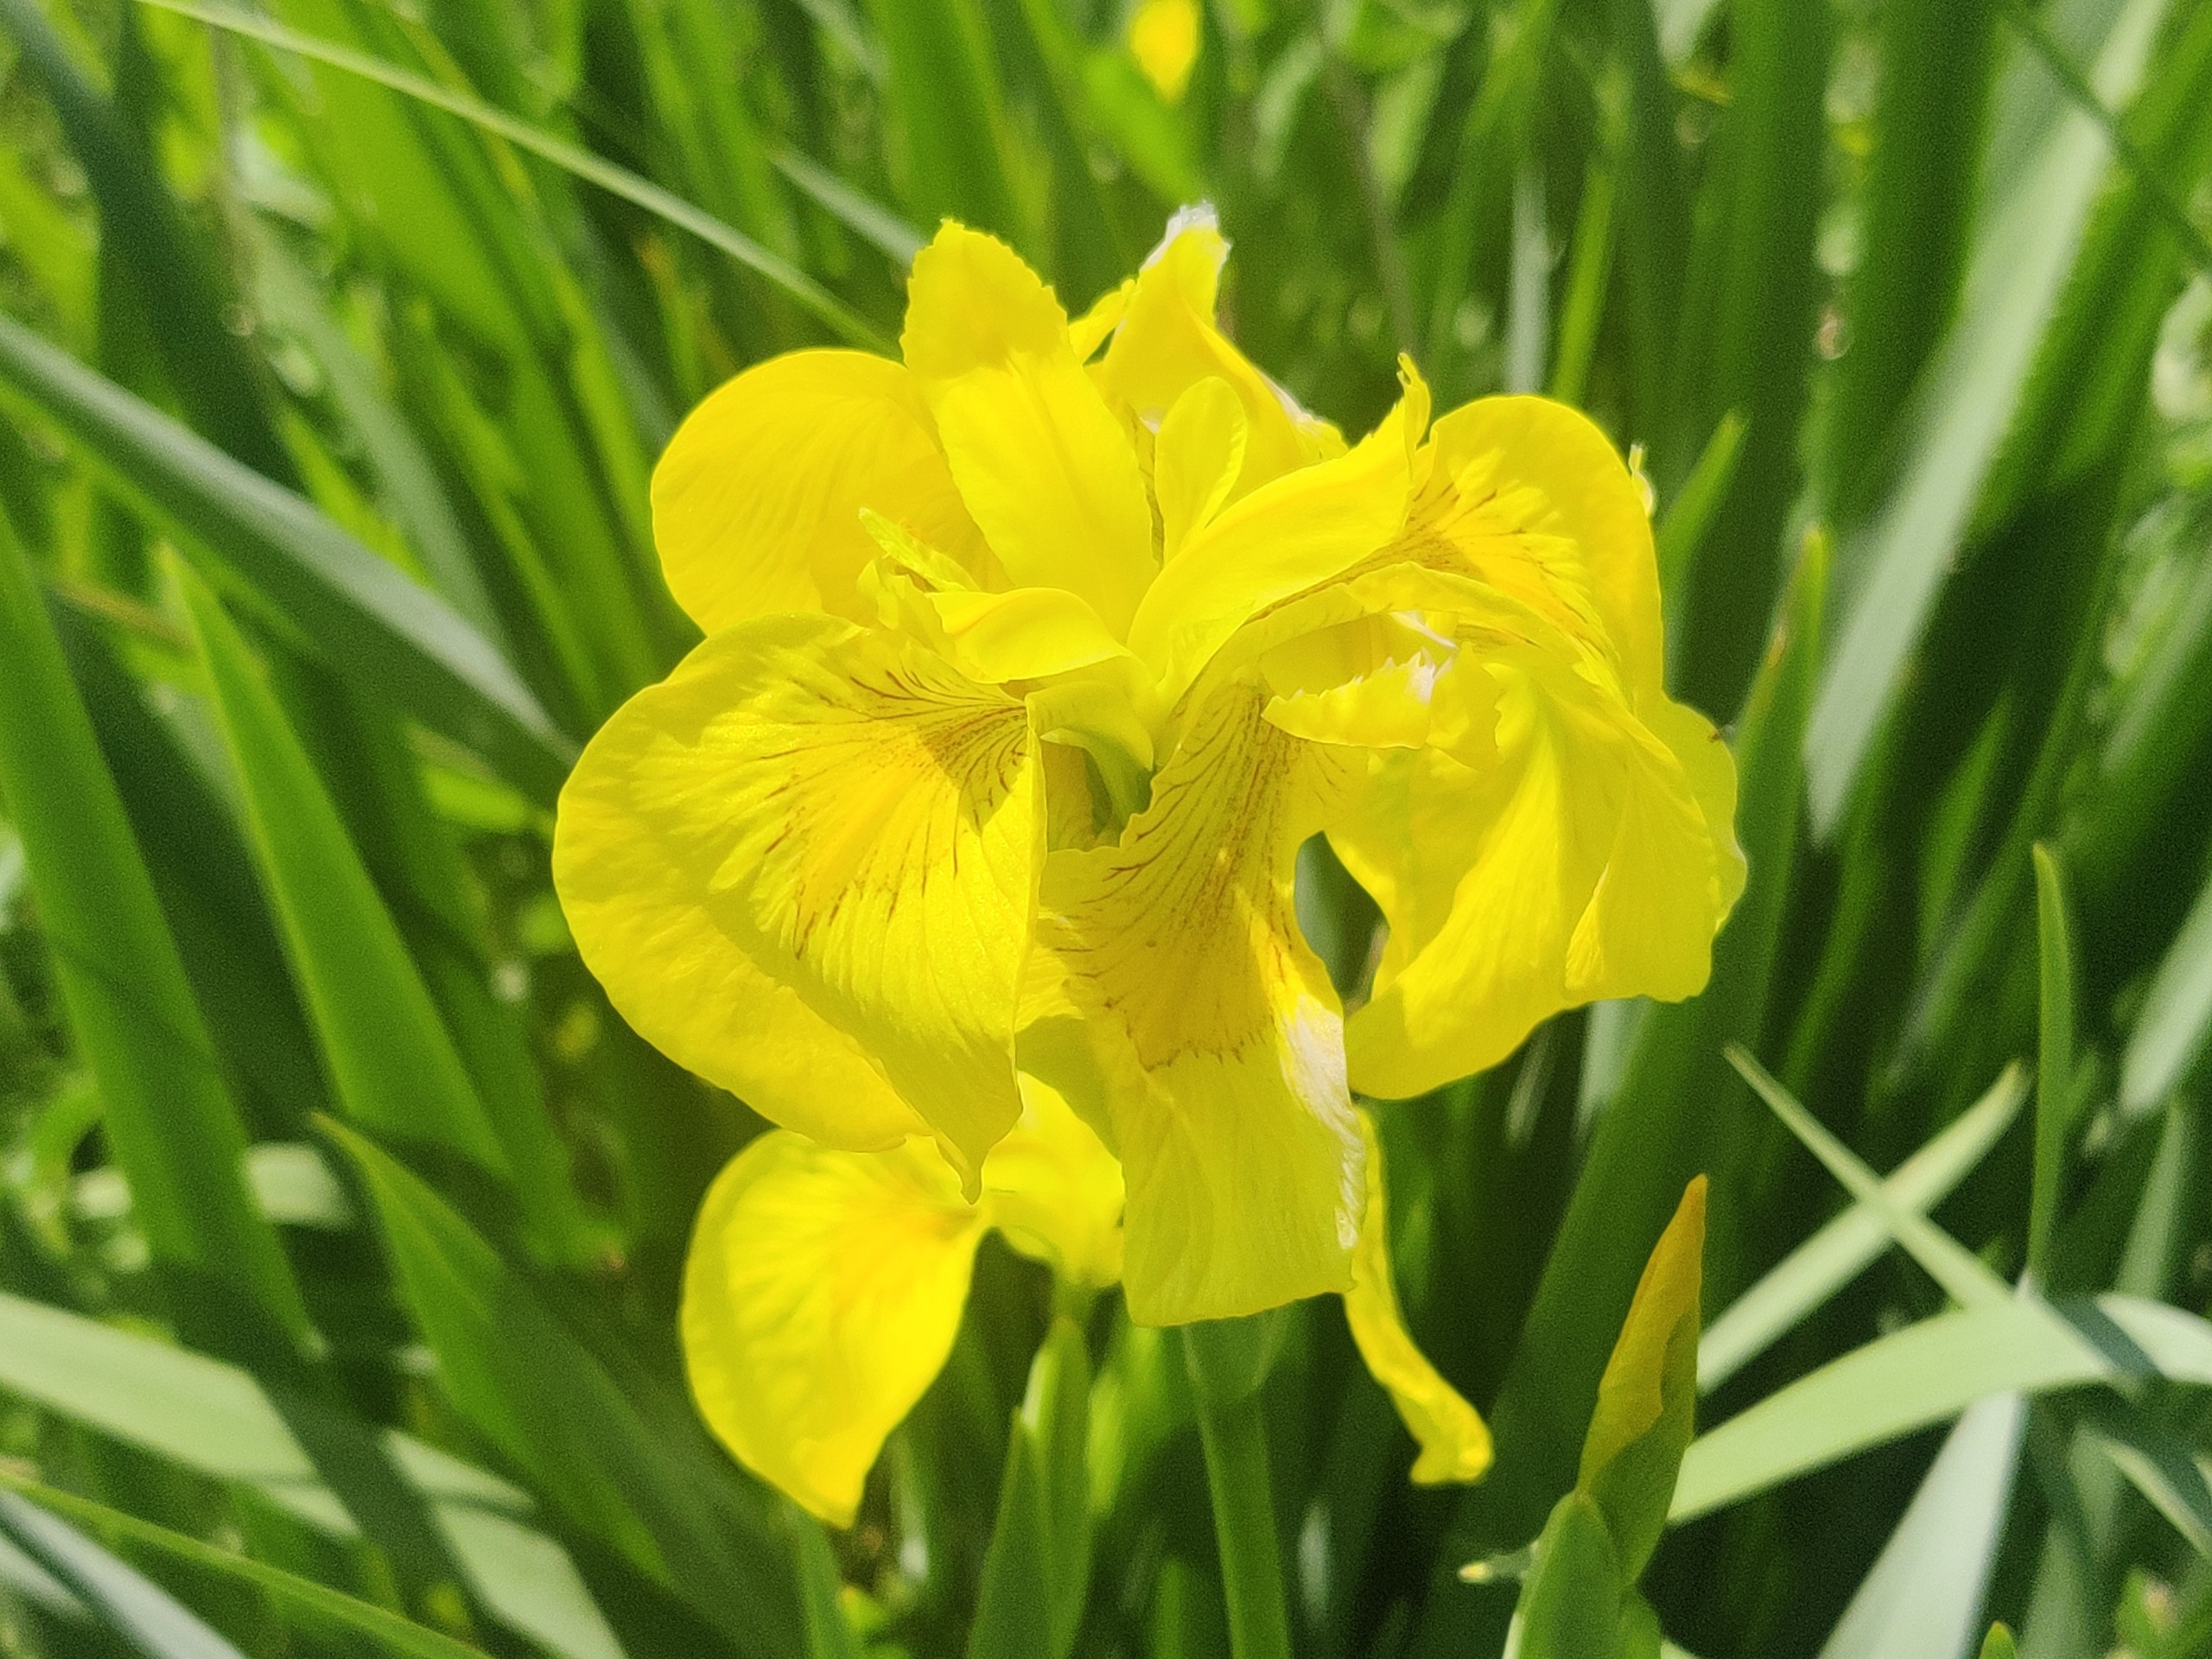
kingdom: Plantae
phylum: Tracheophyta
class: Liliopsida
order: Asparagales
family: Iridaceae
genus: Iris
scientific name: Iris pseudacorus
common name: Gul iris
